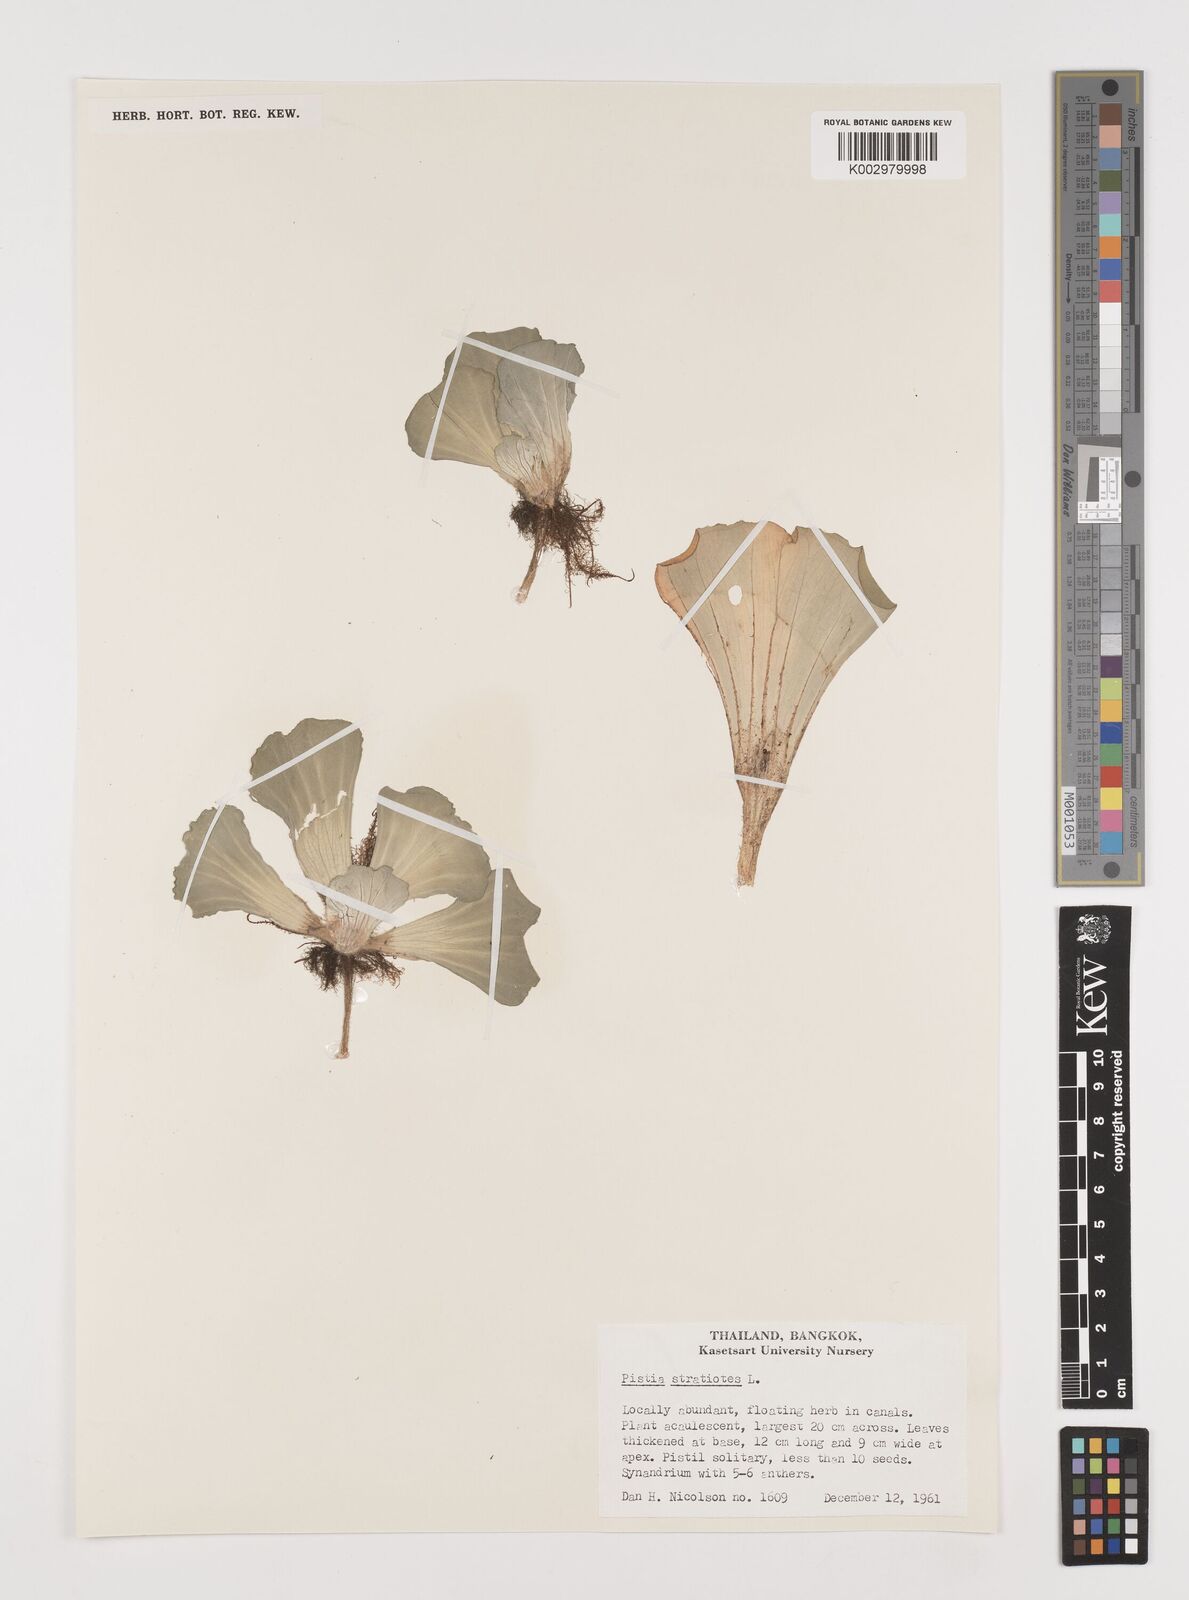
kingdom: Plantae
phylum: Tracheophyta
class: Liliopsida
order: Alismatales
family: Araceae
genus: Pistia
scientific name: Pistia stratiotes
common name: Water lettuce
